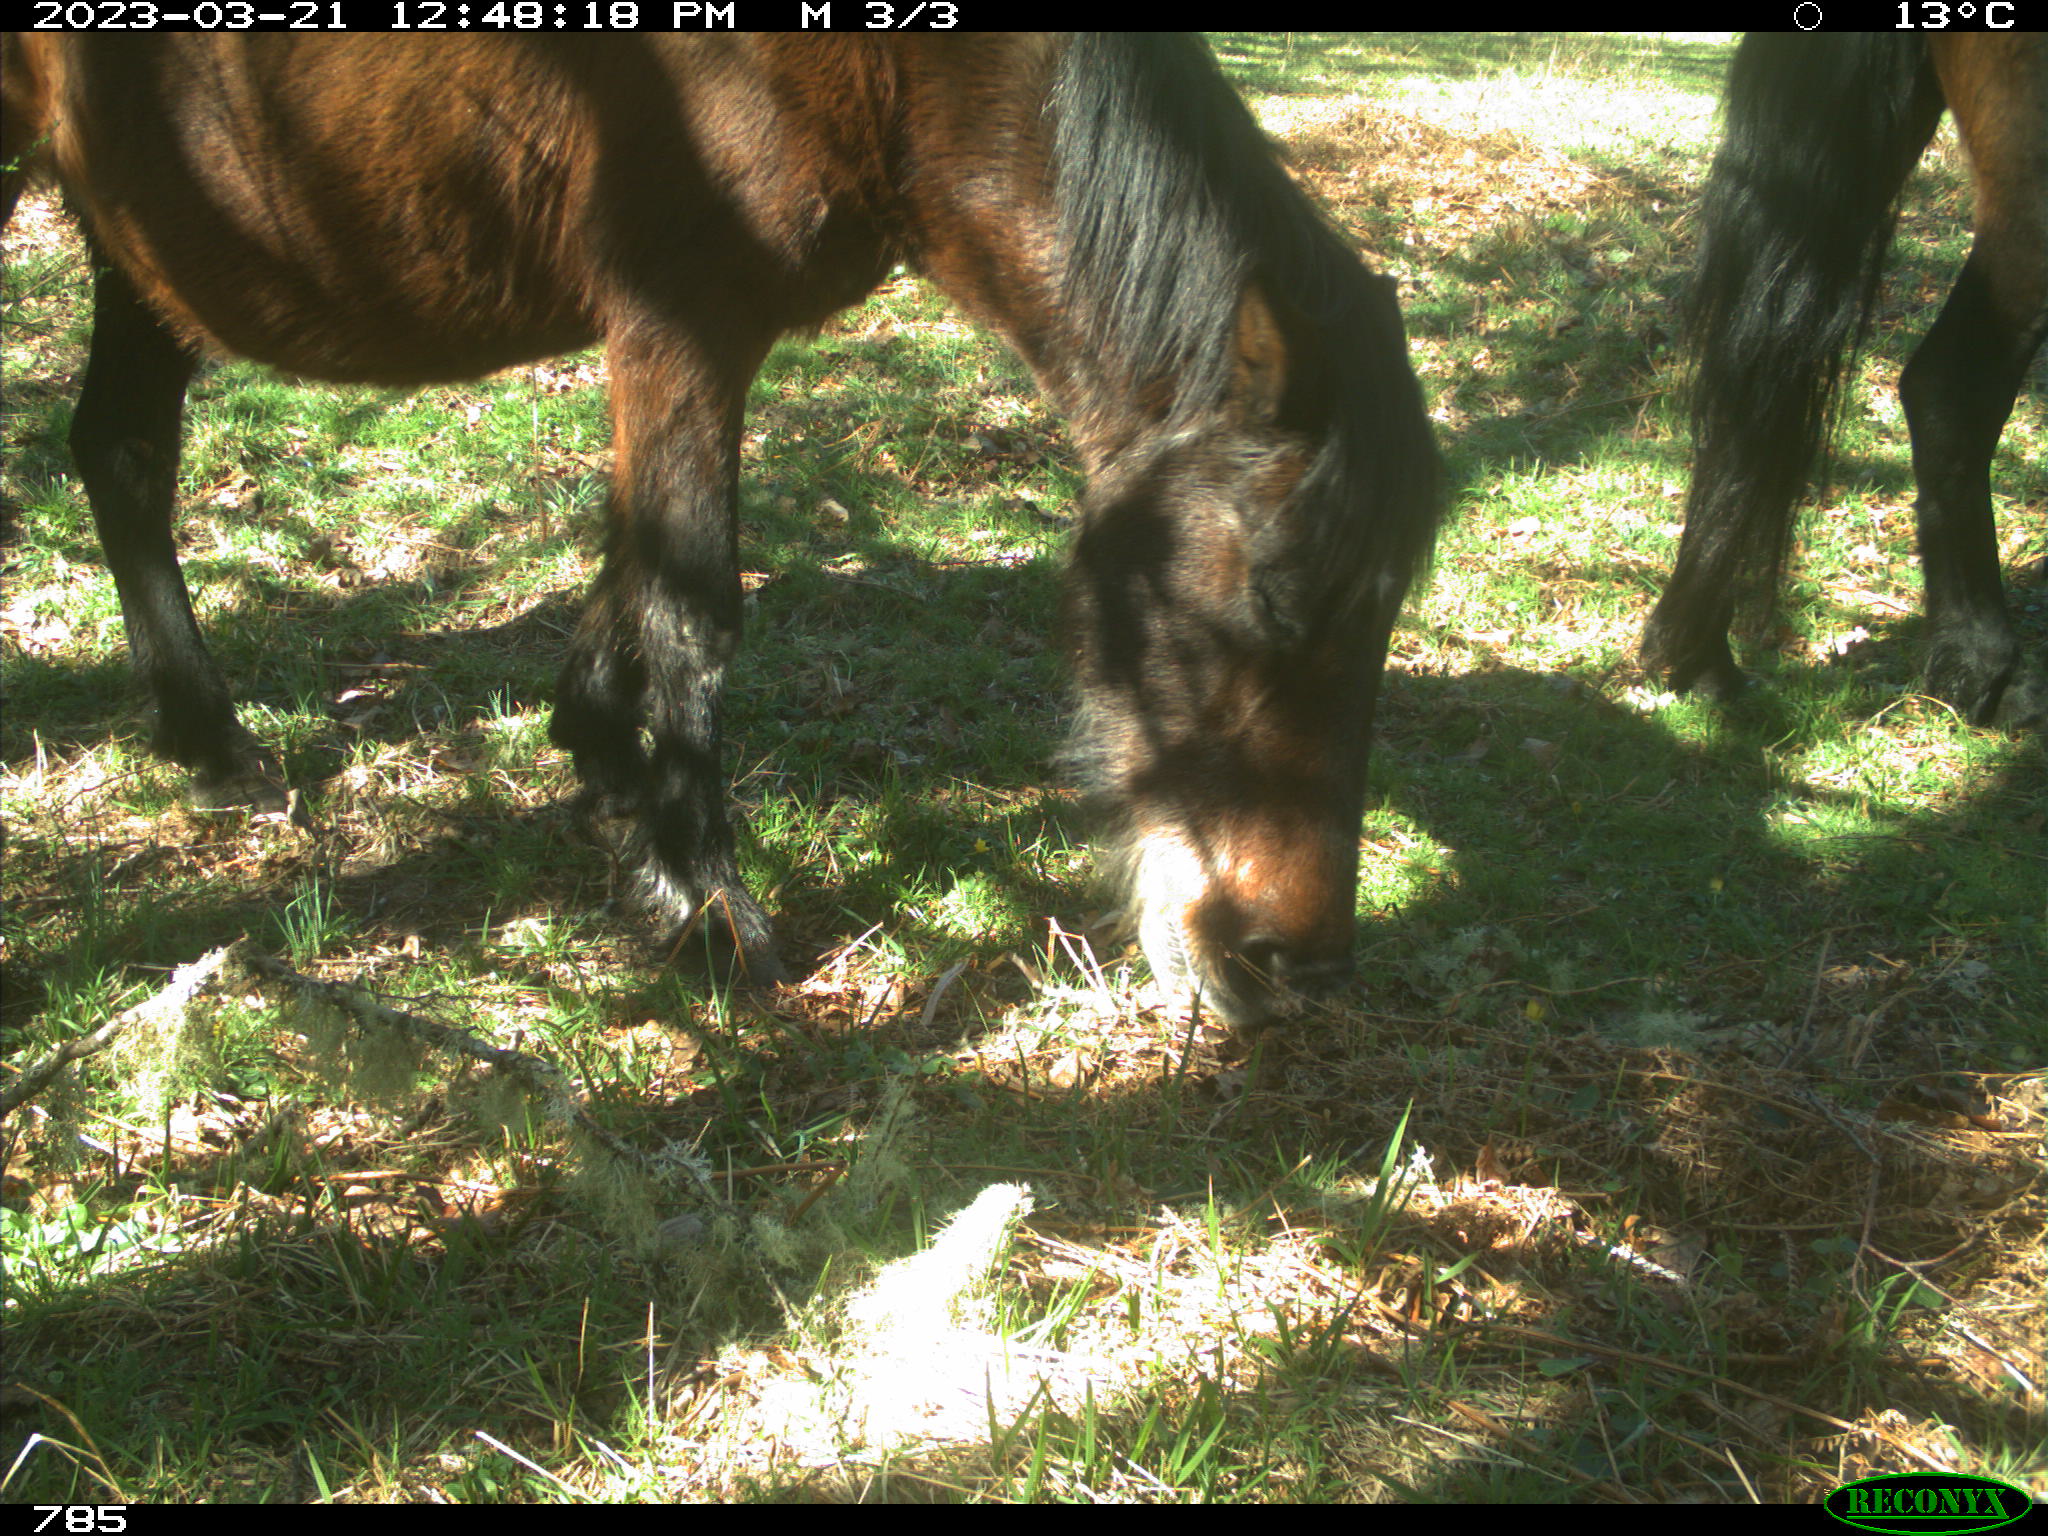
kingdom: Animalia
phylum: Chordata
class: Mammalia
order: Perissodactyla
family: Equidae
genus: Equus
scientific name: Equus caballus
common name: Horse
